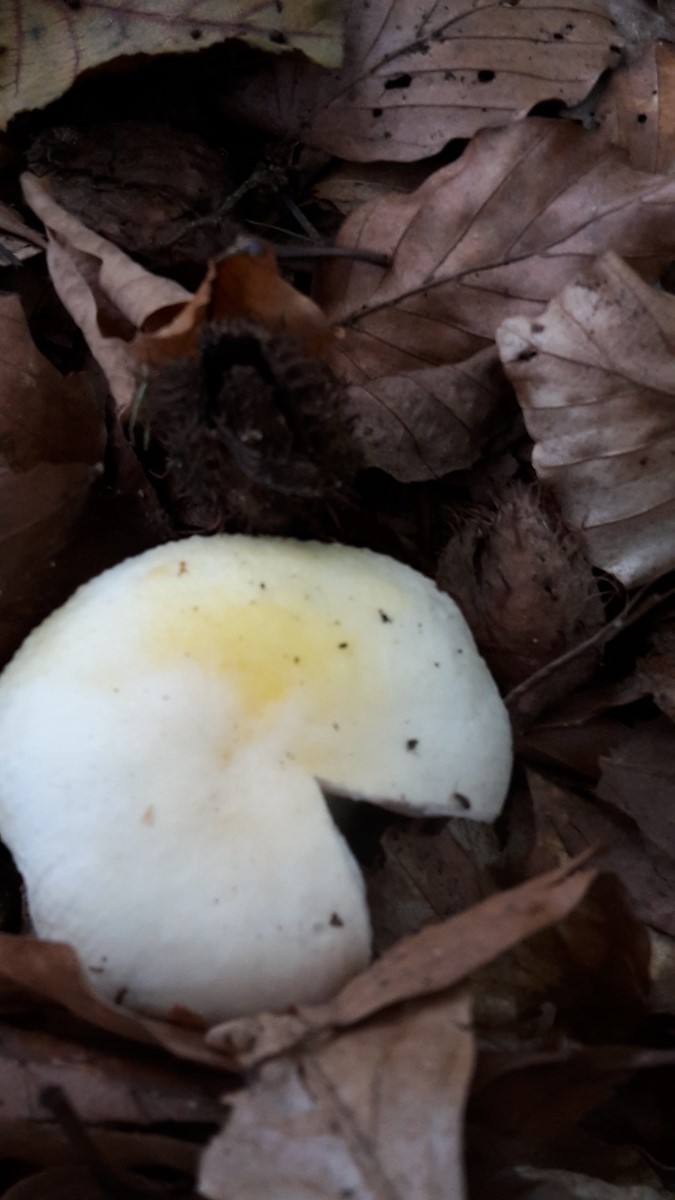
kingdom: Fungi
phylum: Basidiomycota
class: Agaricomycetes
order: Russulales
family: Russulaceae
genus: Russula
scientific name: Russula solaris
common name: sol-skørhat
